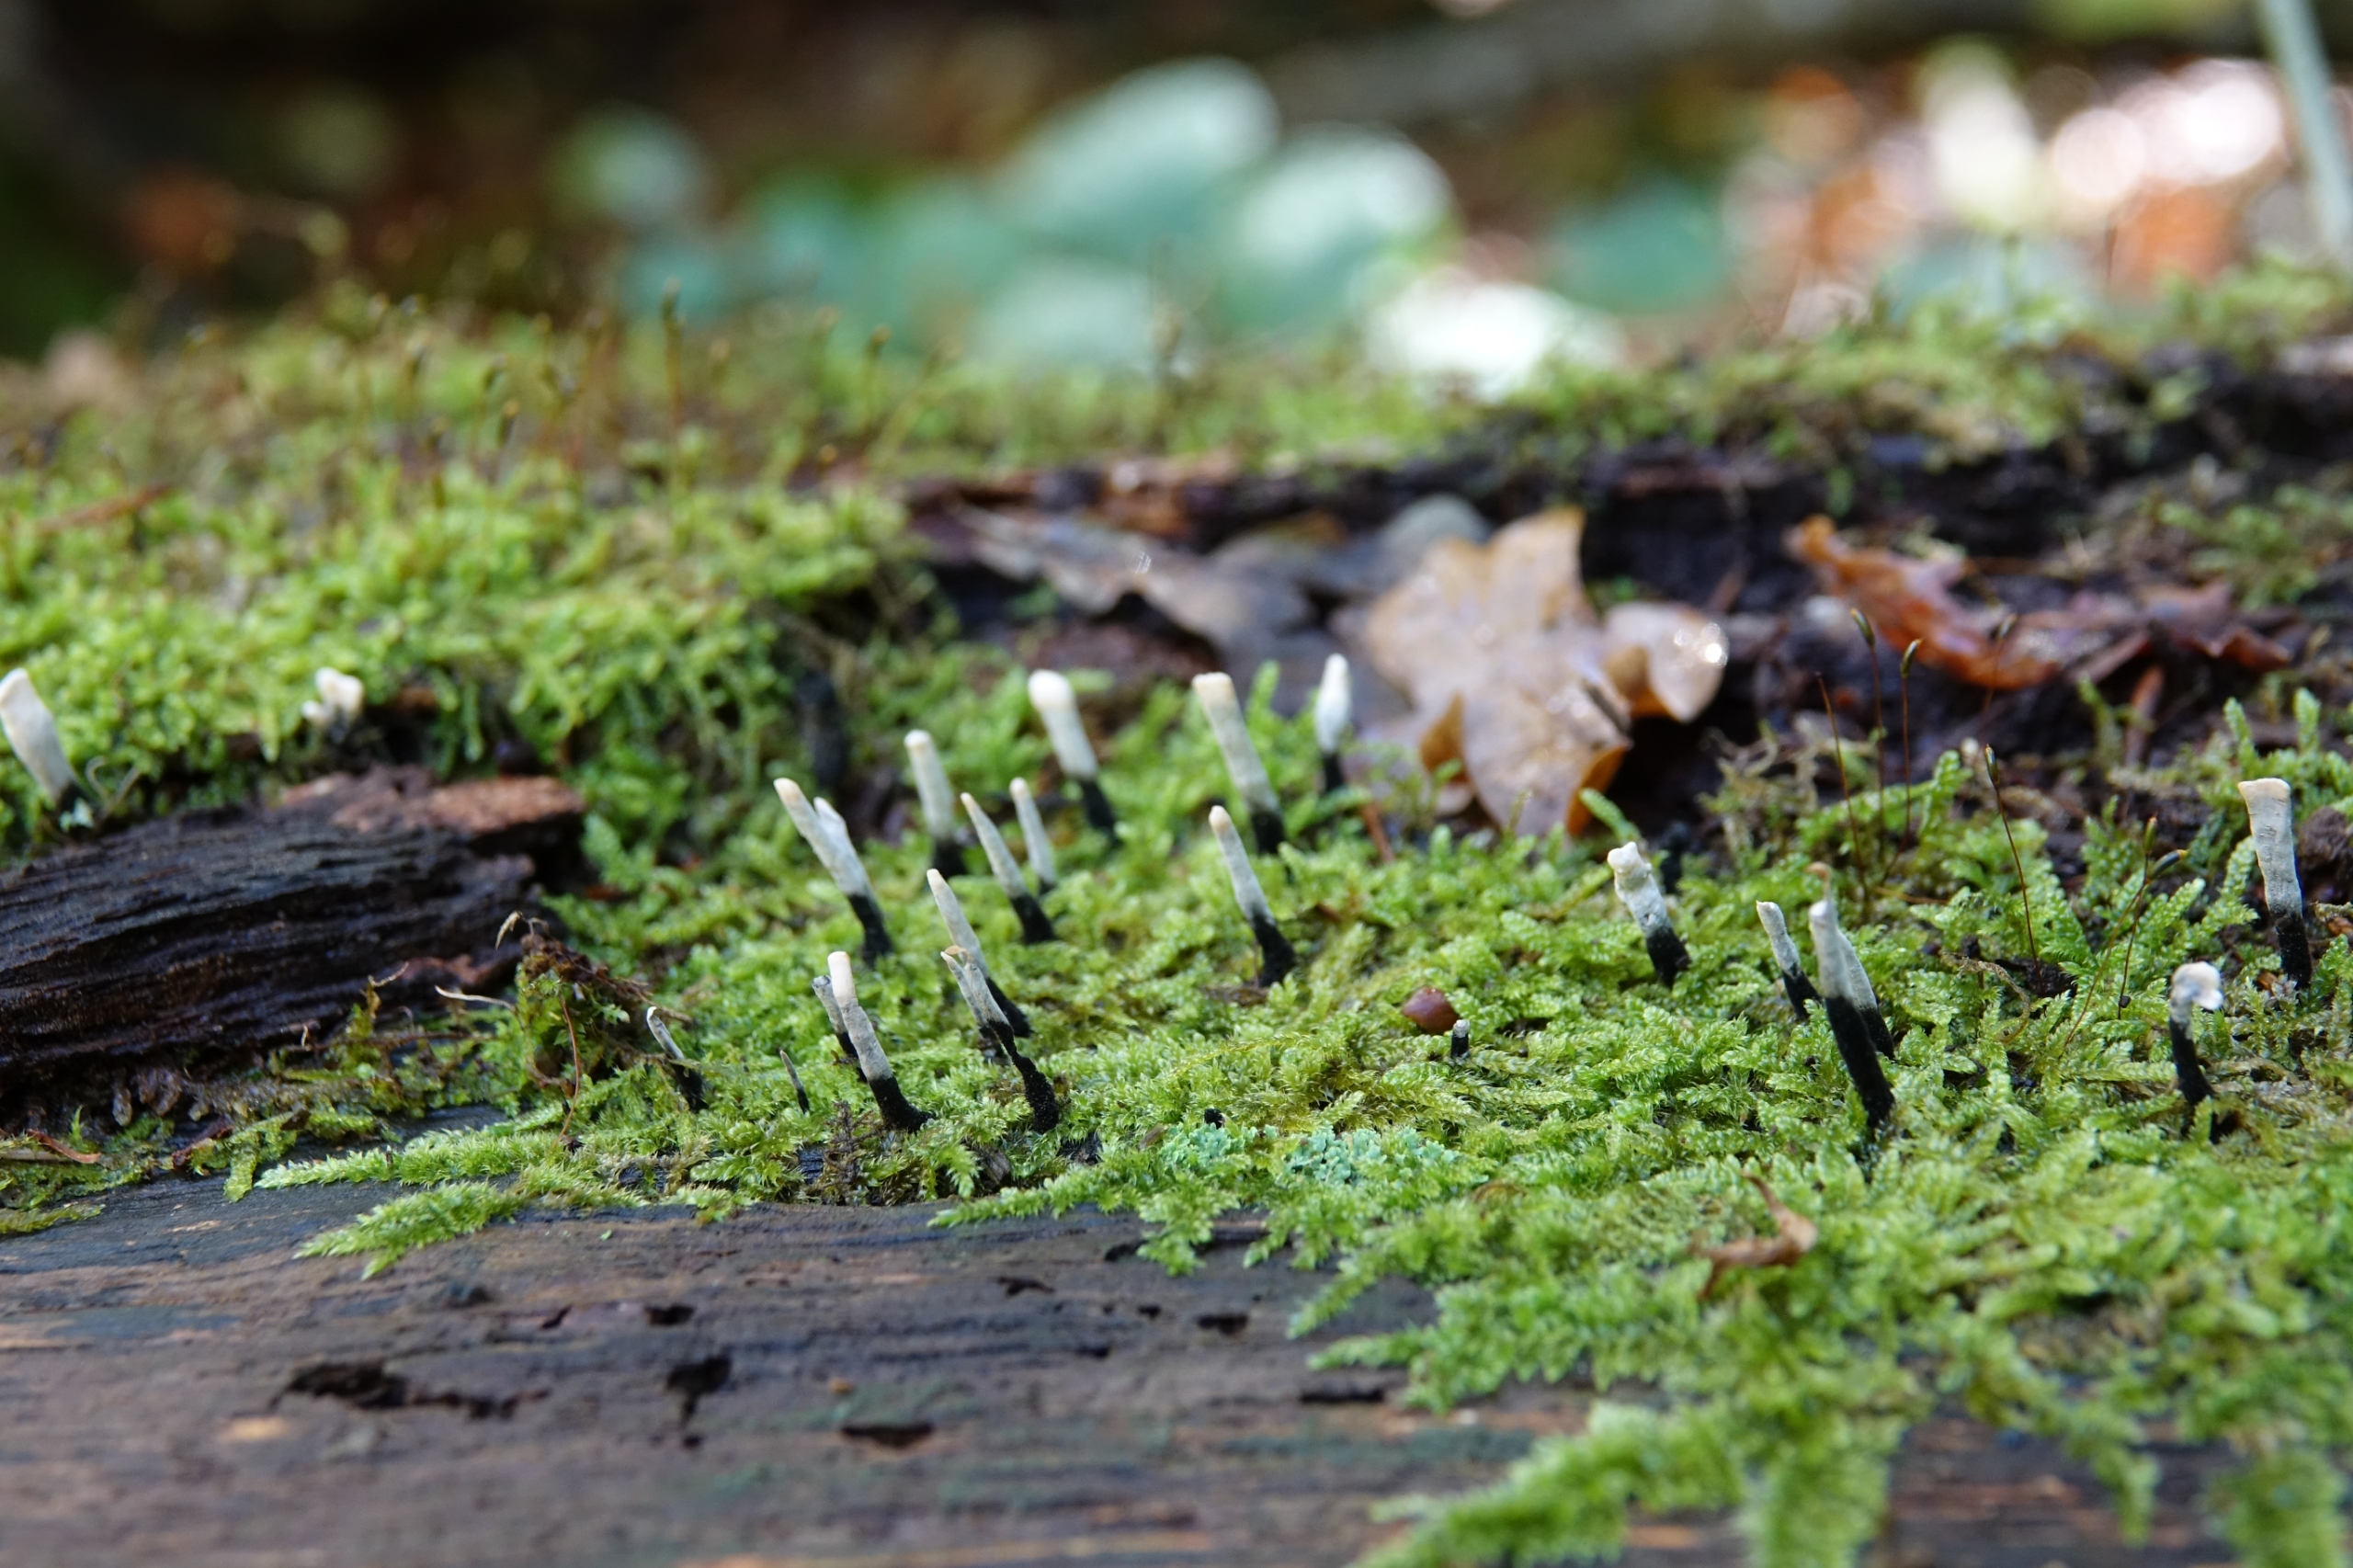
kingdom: Fungi
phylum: Ascomycota
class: Sordariomycetes
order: Xylariales
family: Xylariaceae
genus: Xylaria
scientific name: Xylaria hypoxylon
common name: Grenet stødsvamp
